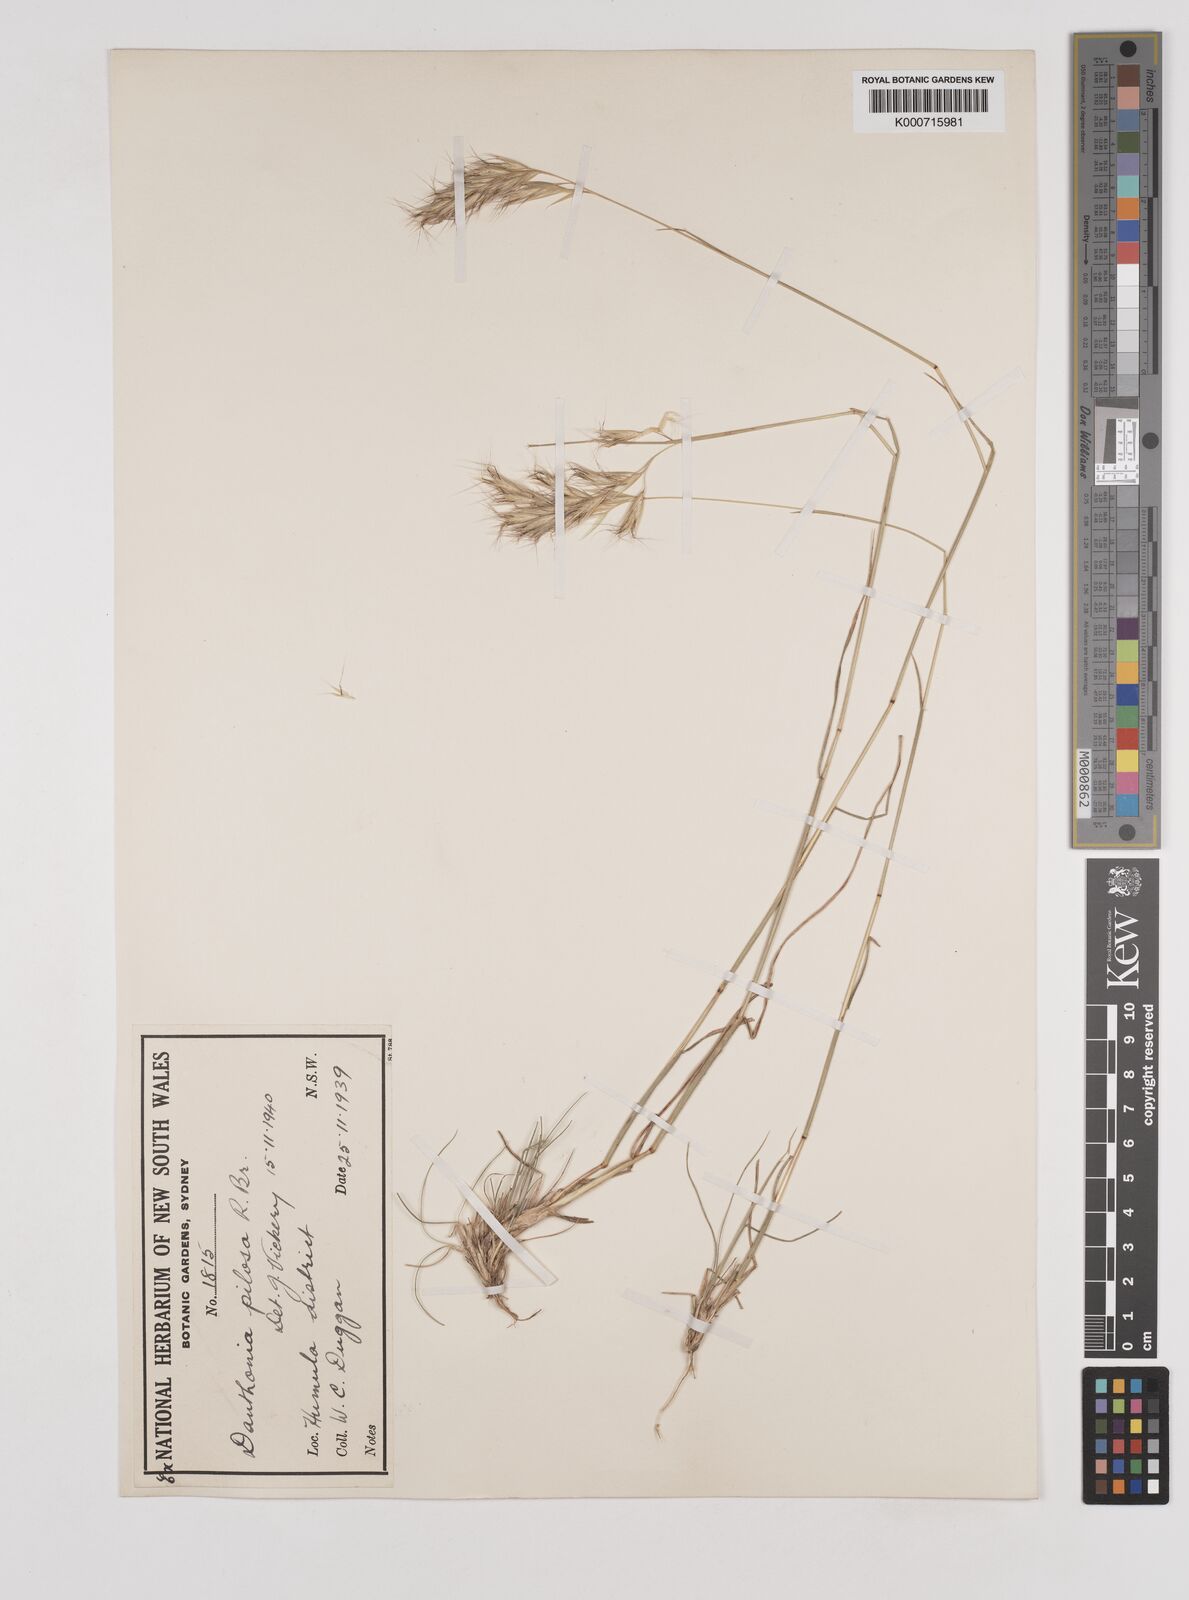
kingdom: Plantae
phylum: Tracheophyta
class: Liliopsida
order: Poales
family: Poaceae
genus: Rytidosperma
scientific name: Rytidosperma pilosum
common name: Hairy wallaby grass
